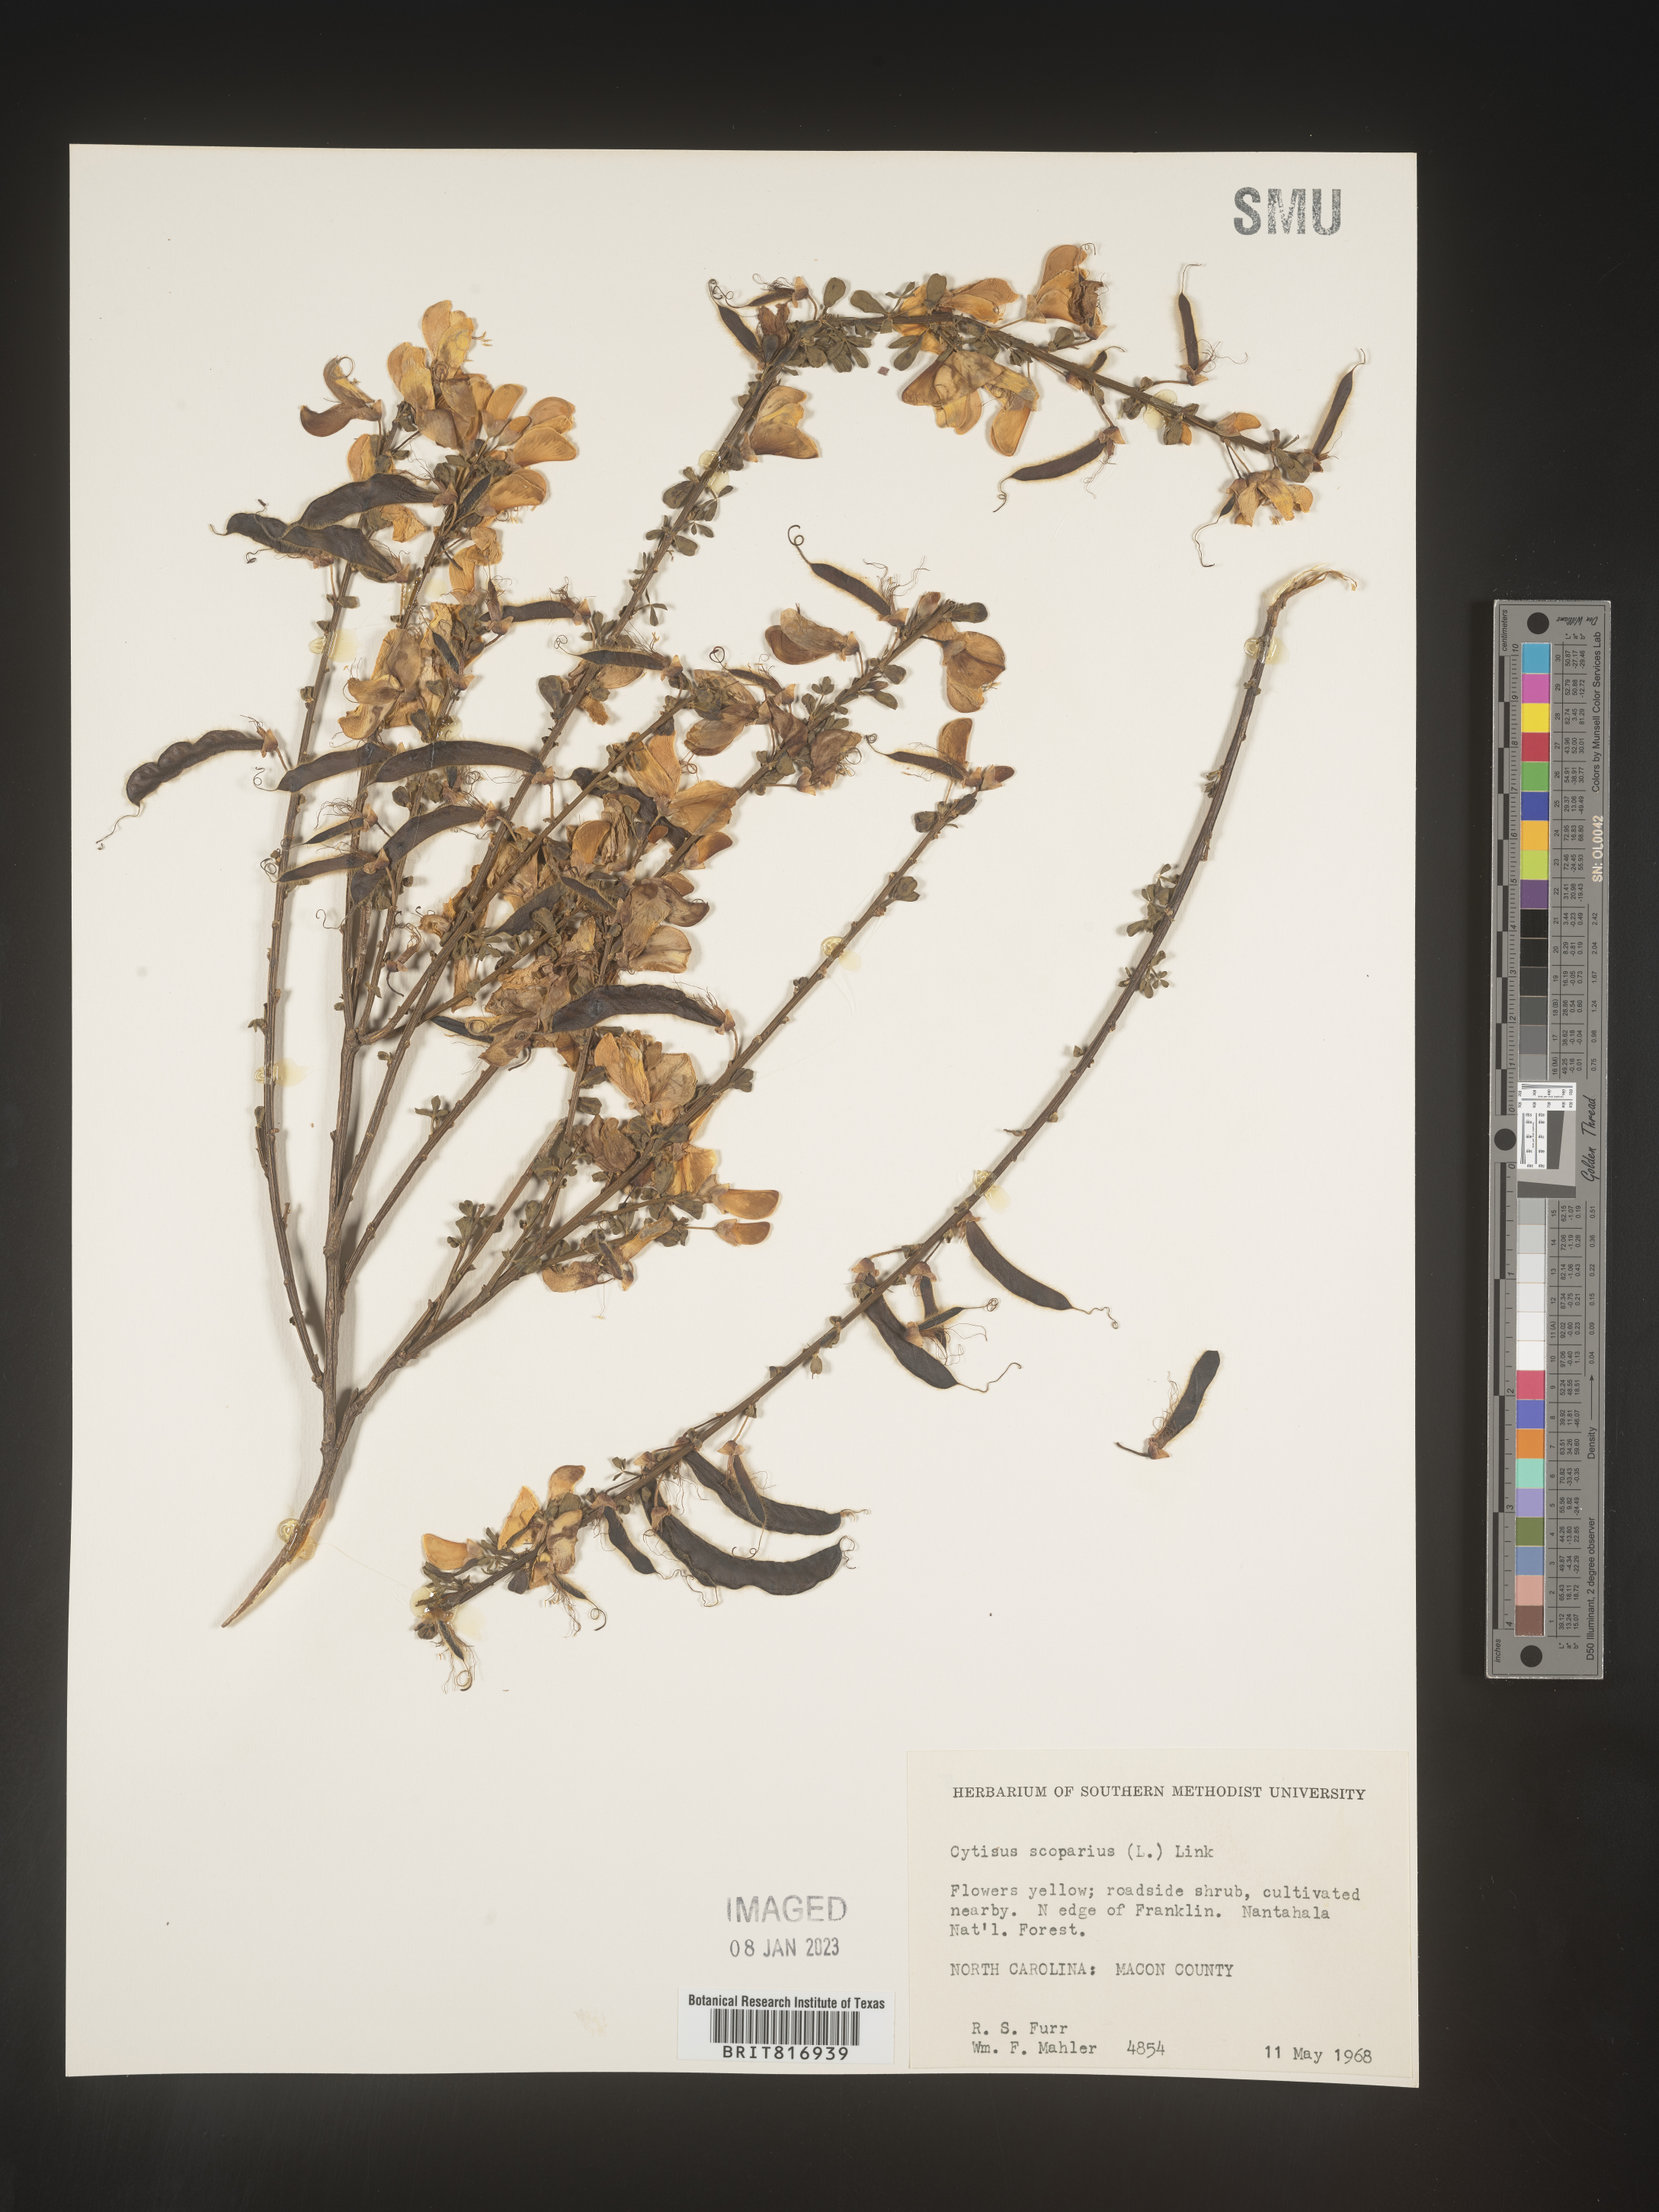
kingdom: Plantae
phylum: Tracheophyta
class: Magnoliopsida
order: Fabales
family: Fabaceae
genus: Cytisus
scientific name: Cytisus
